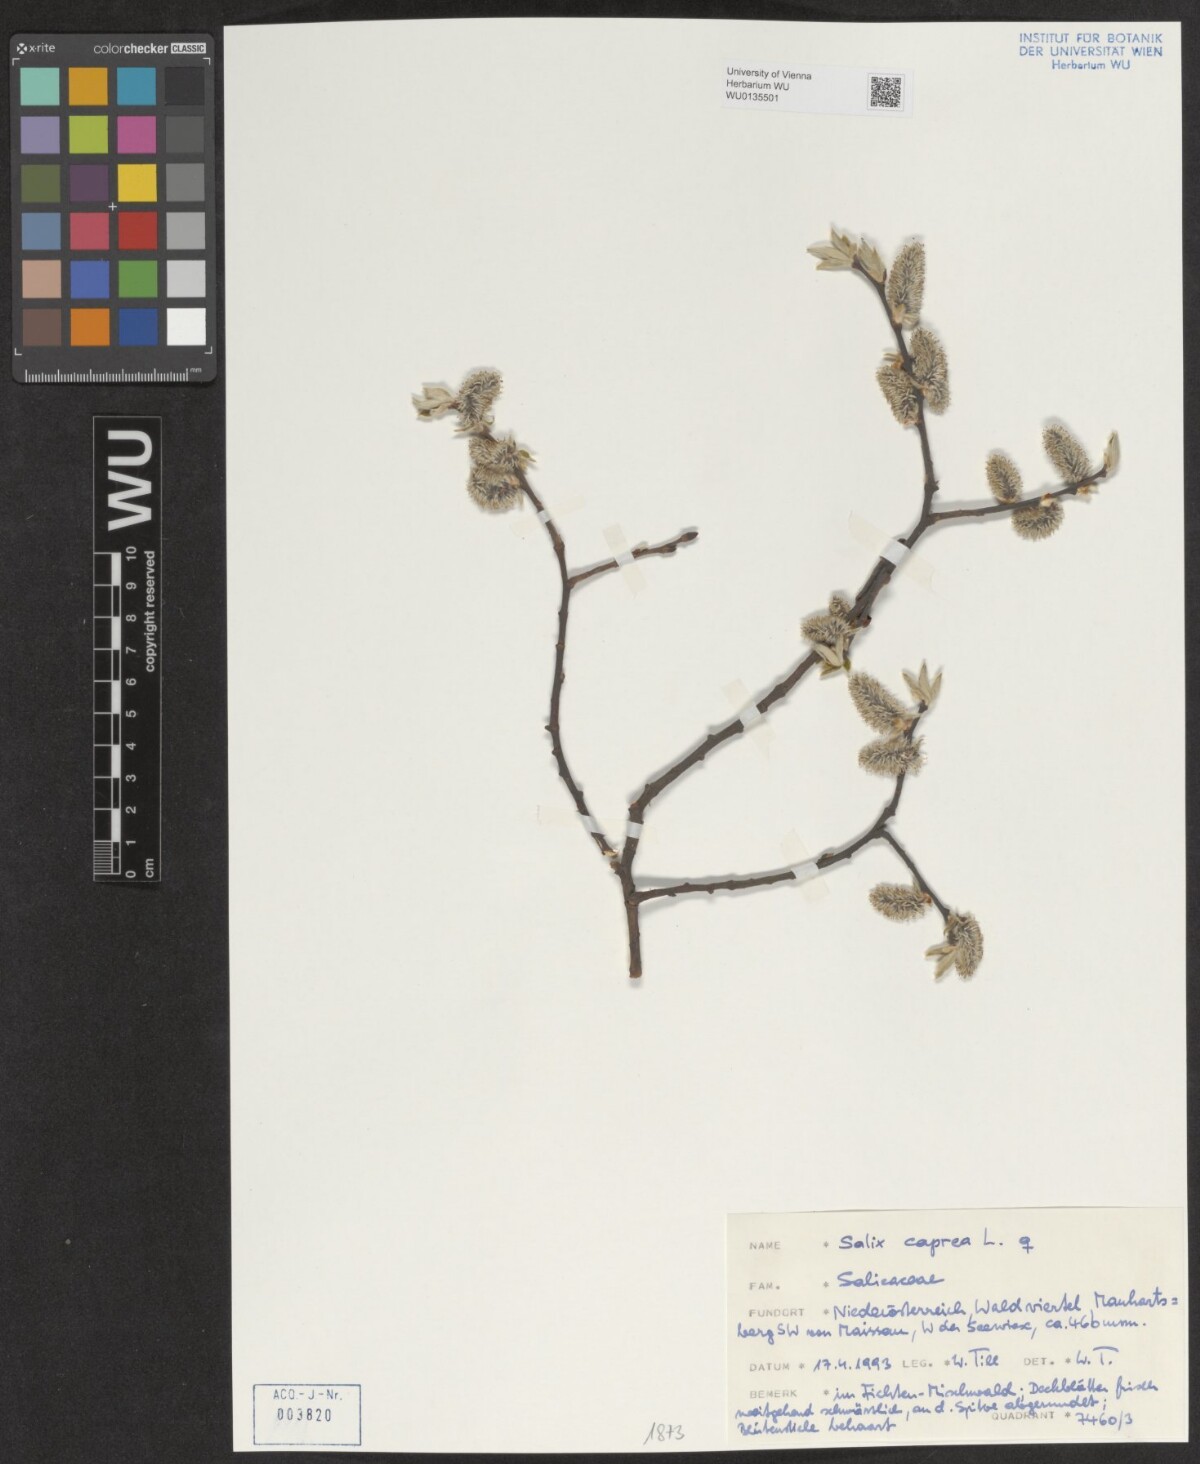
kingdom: Plantae
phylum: Tracheophyta
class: Magnoliopsida
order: Malpighiales
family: Salicaceae
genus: Salix
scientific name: Salix caprea
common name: Goat willow
